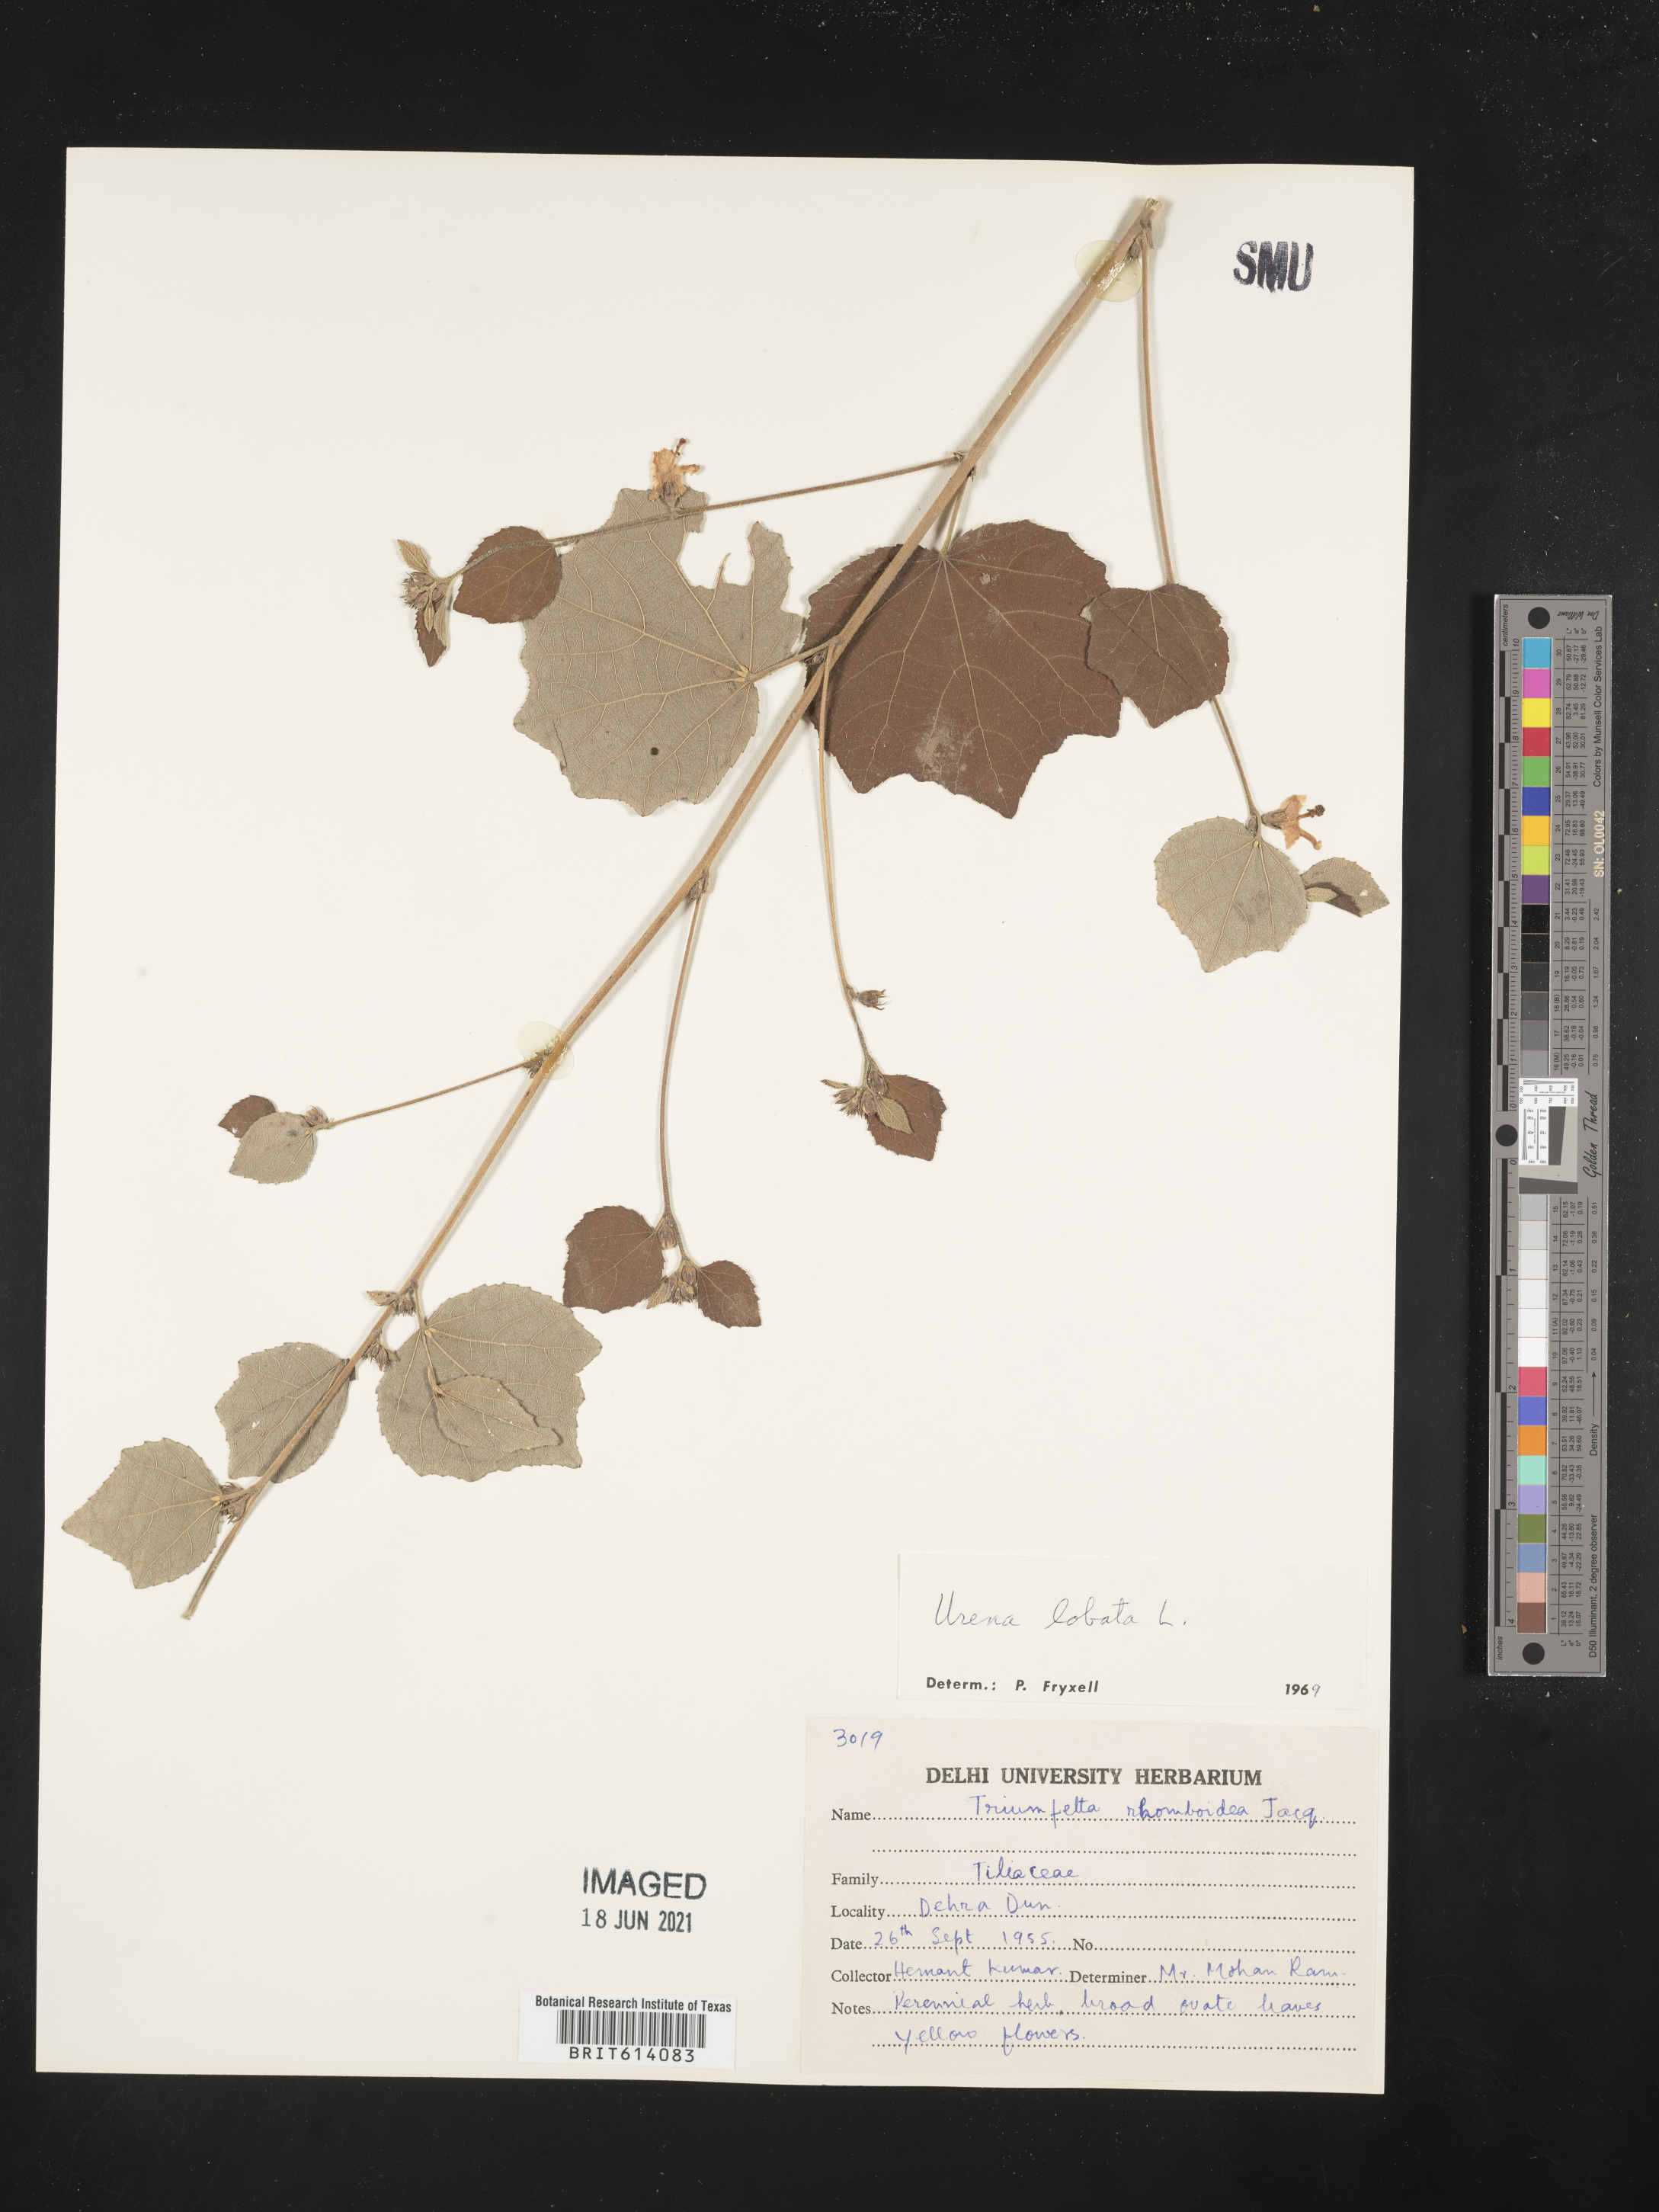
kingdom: Plantae
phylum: Tracheophyta
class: Magnoliopsida
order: Malvales
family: Malvaceae
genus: Urena
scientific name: Urena lobata
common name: Caesarweed
